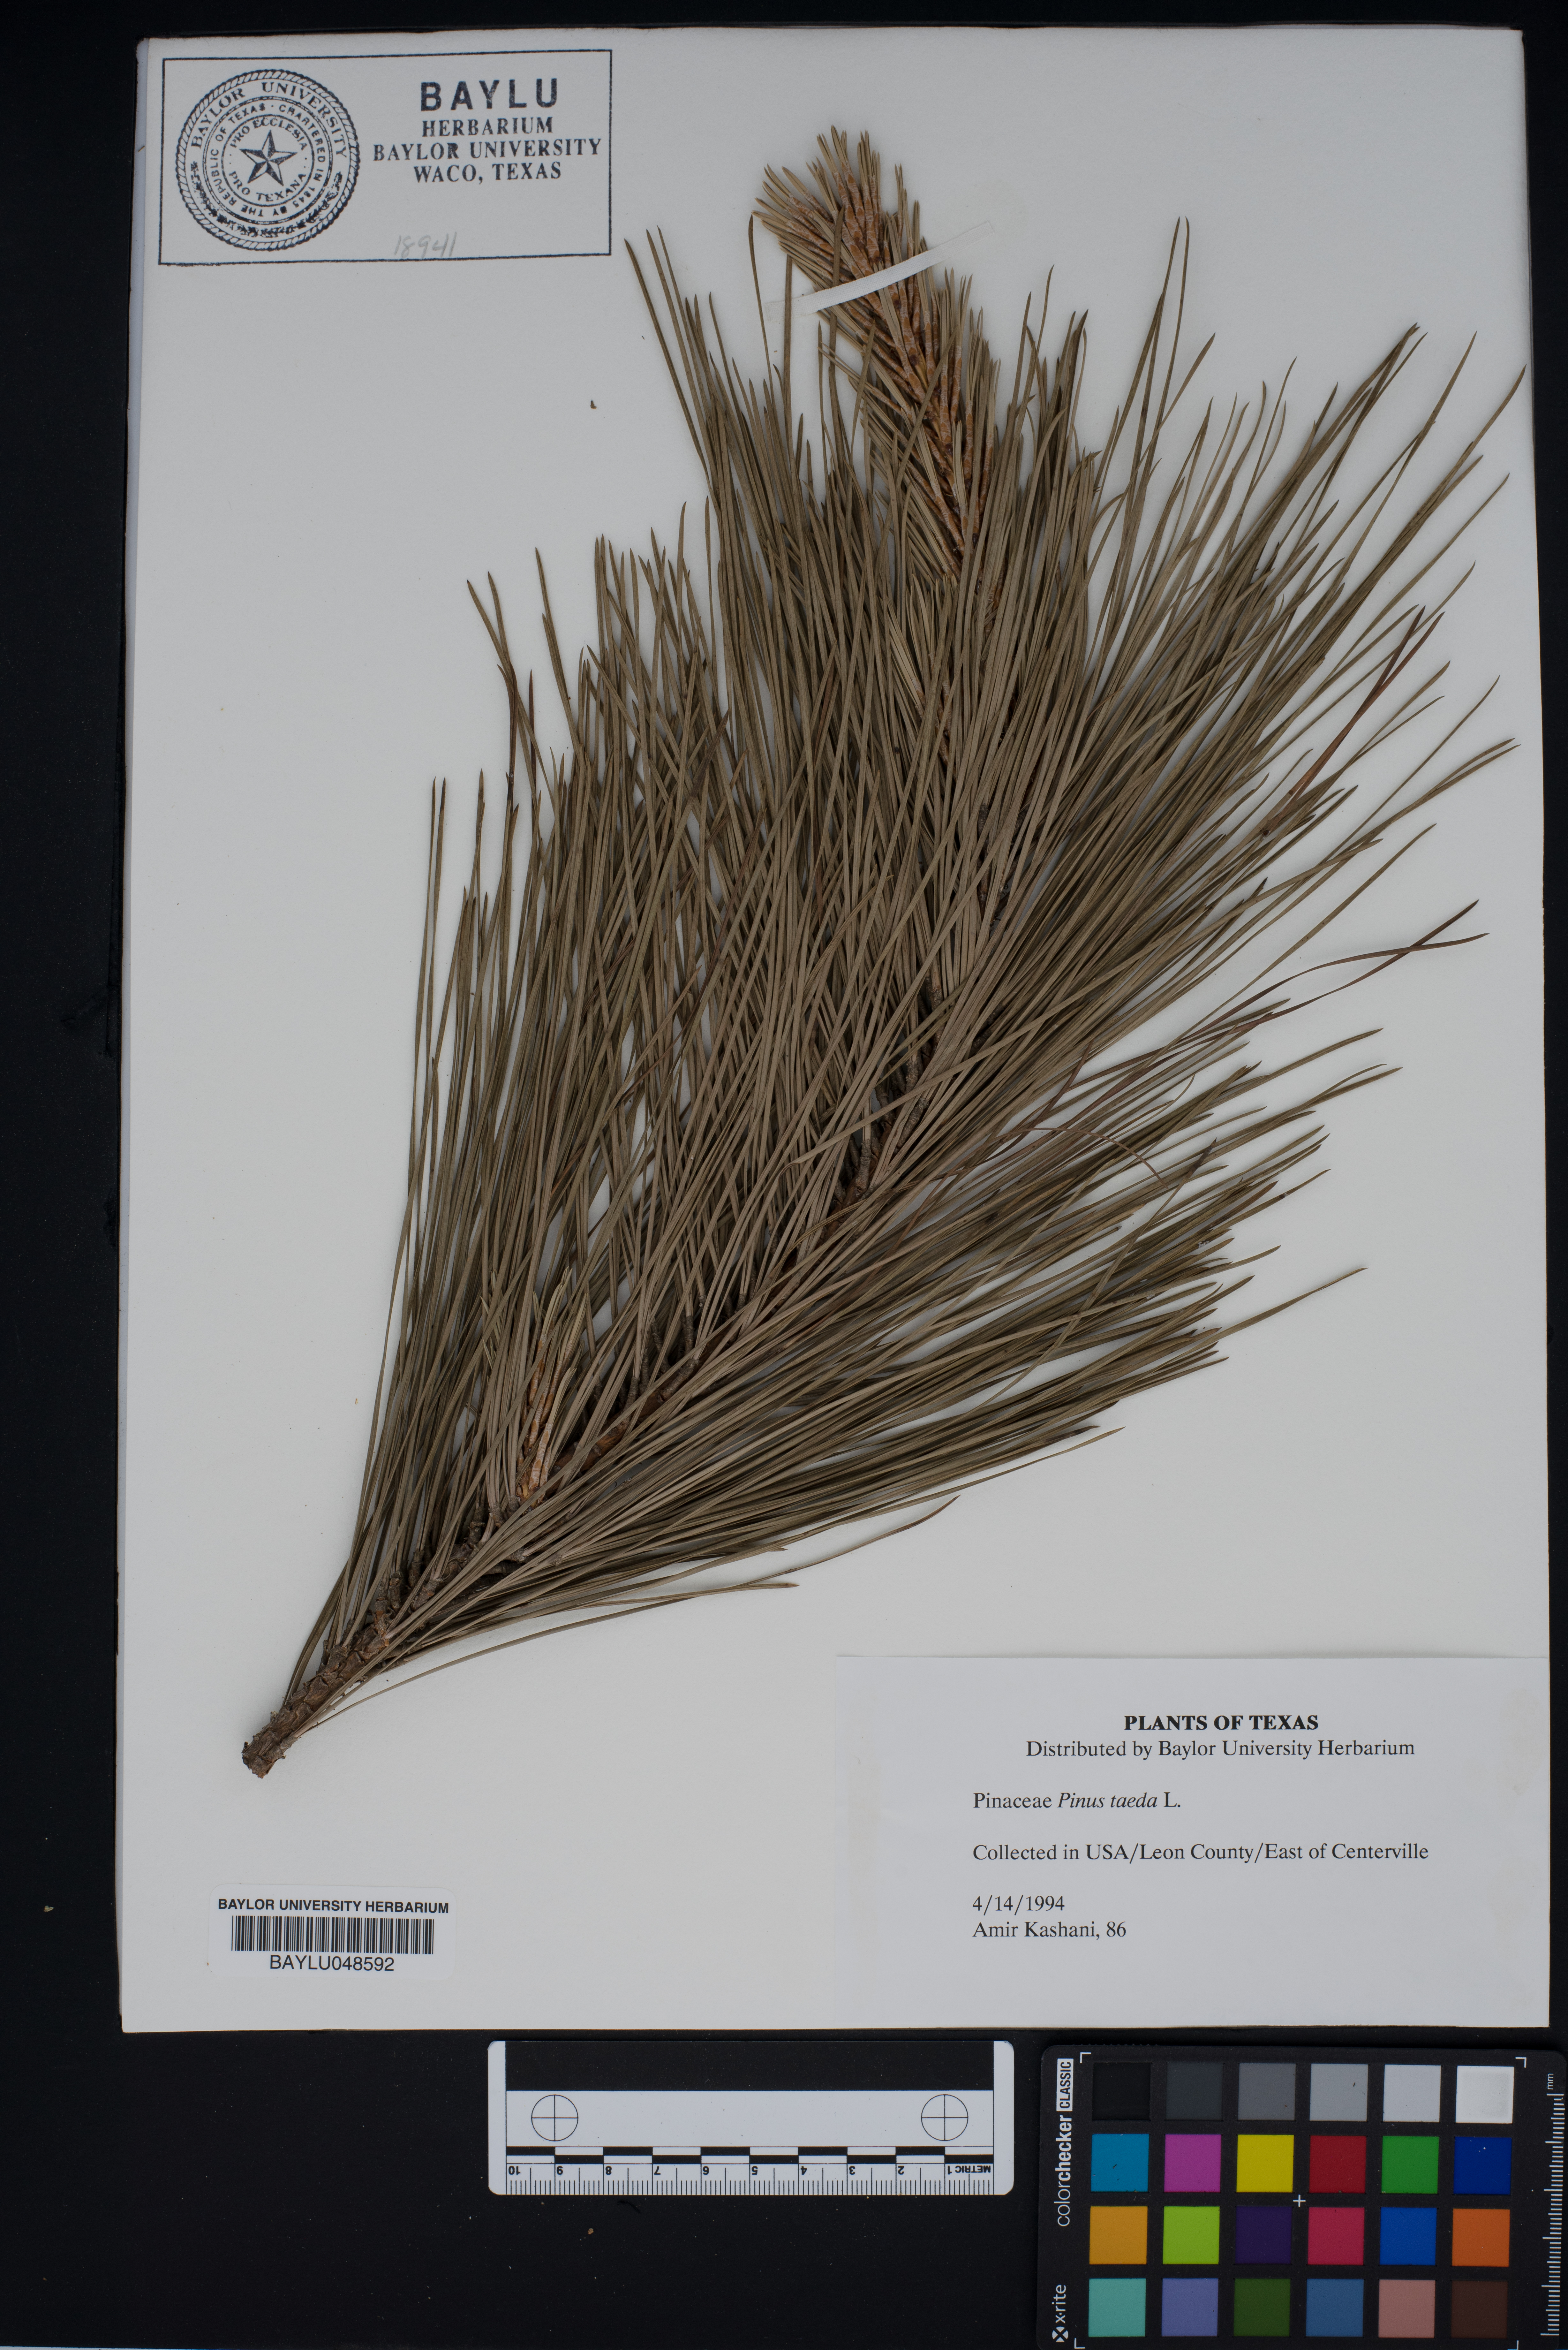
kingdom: Plantae
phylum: Tracheophyta
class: Pinopsida
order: Pinales
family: Pinaceae
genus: Pinus
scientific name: Pinus taeda
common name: Loblolly pine
